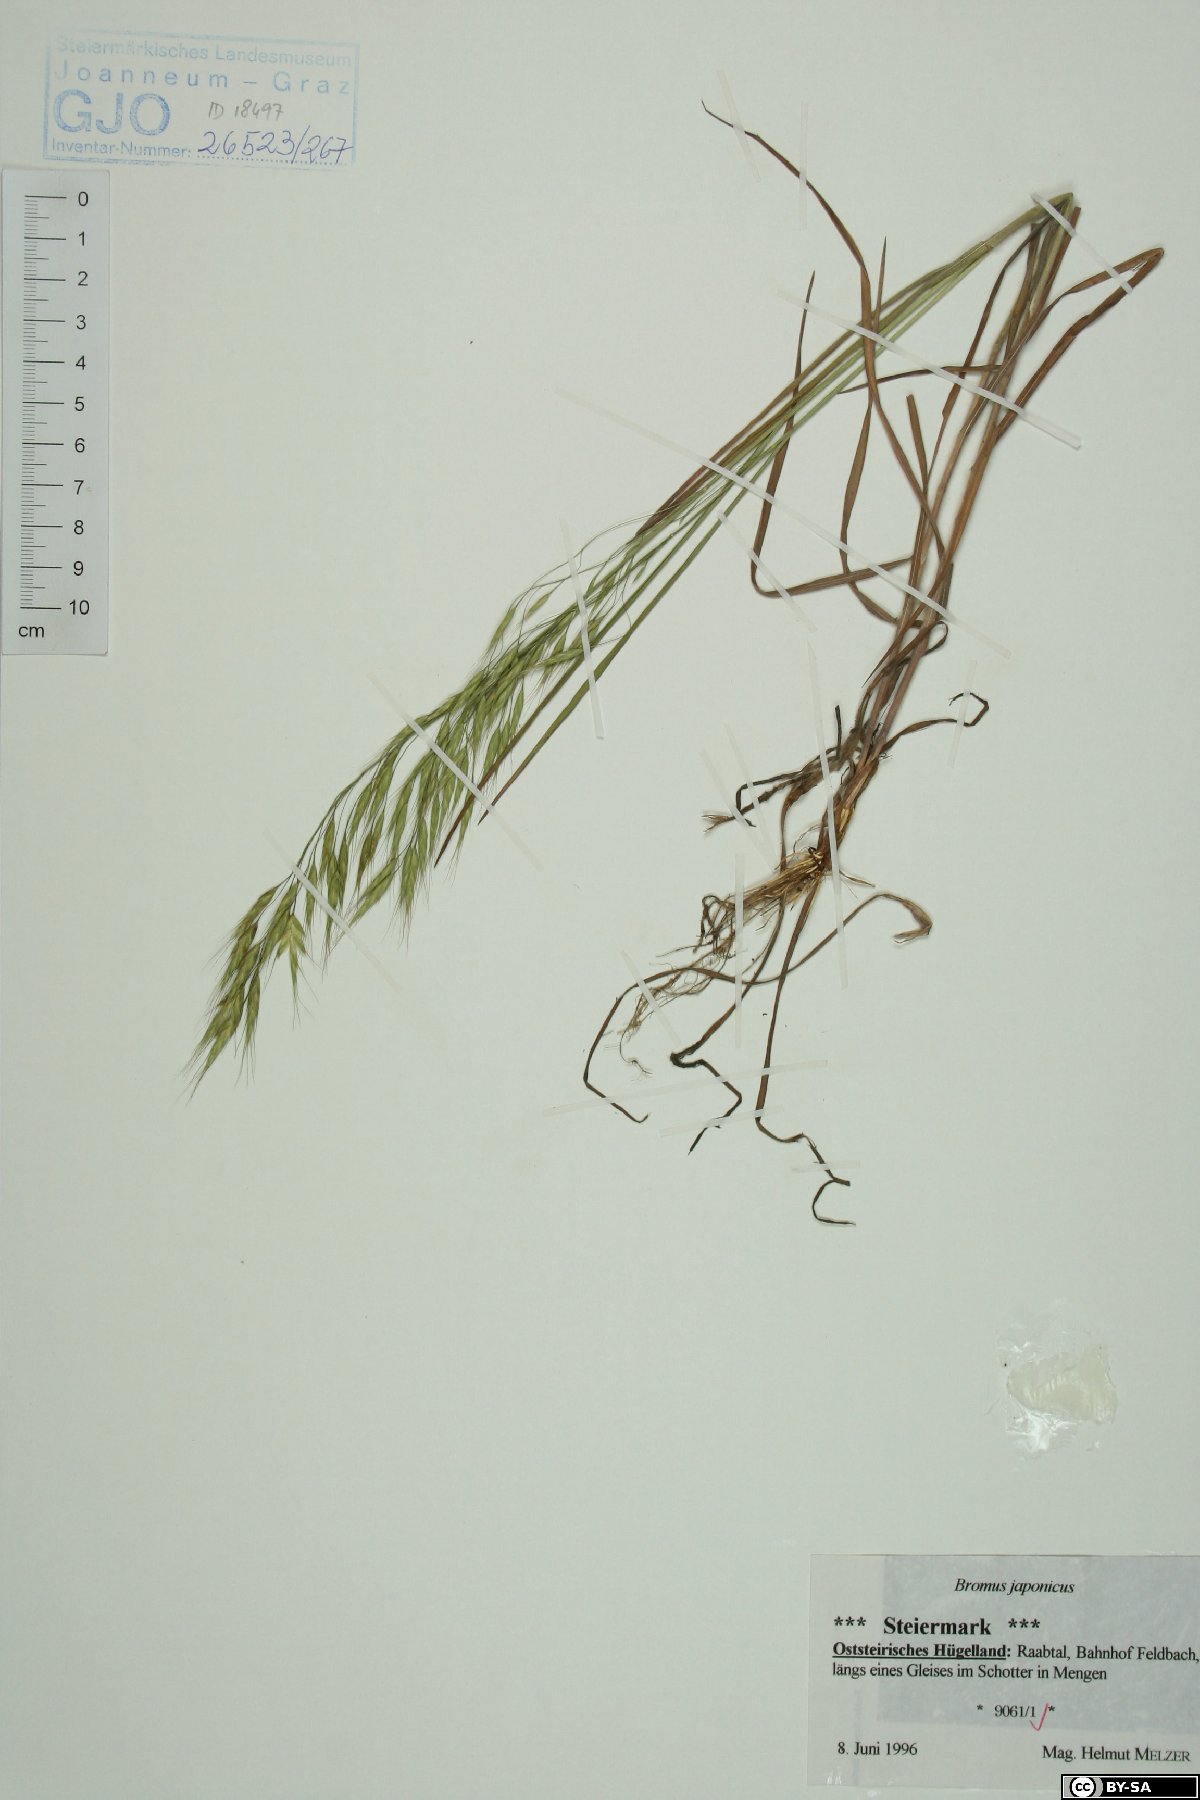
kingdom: Plantae
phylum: Tracheophyta
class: Liliopsida
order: Poales
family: Poaceae
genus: Bromus
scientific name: Bromus japonicus
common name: Japanese brome
